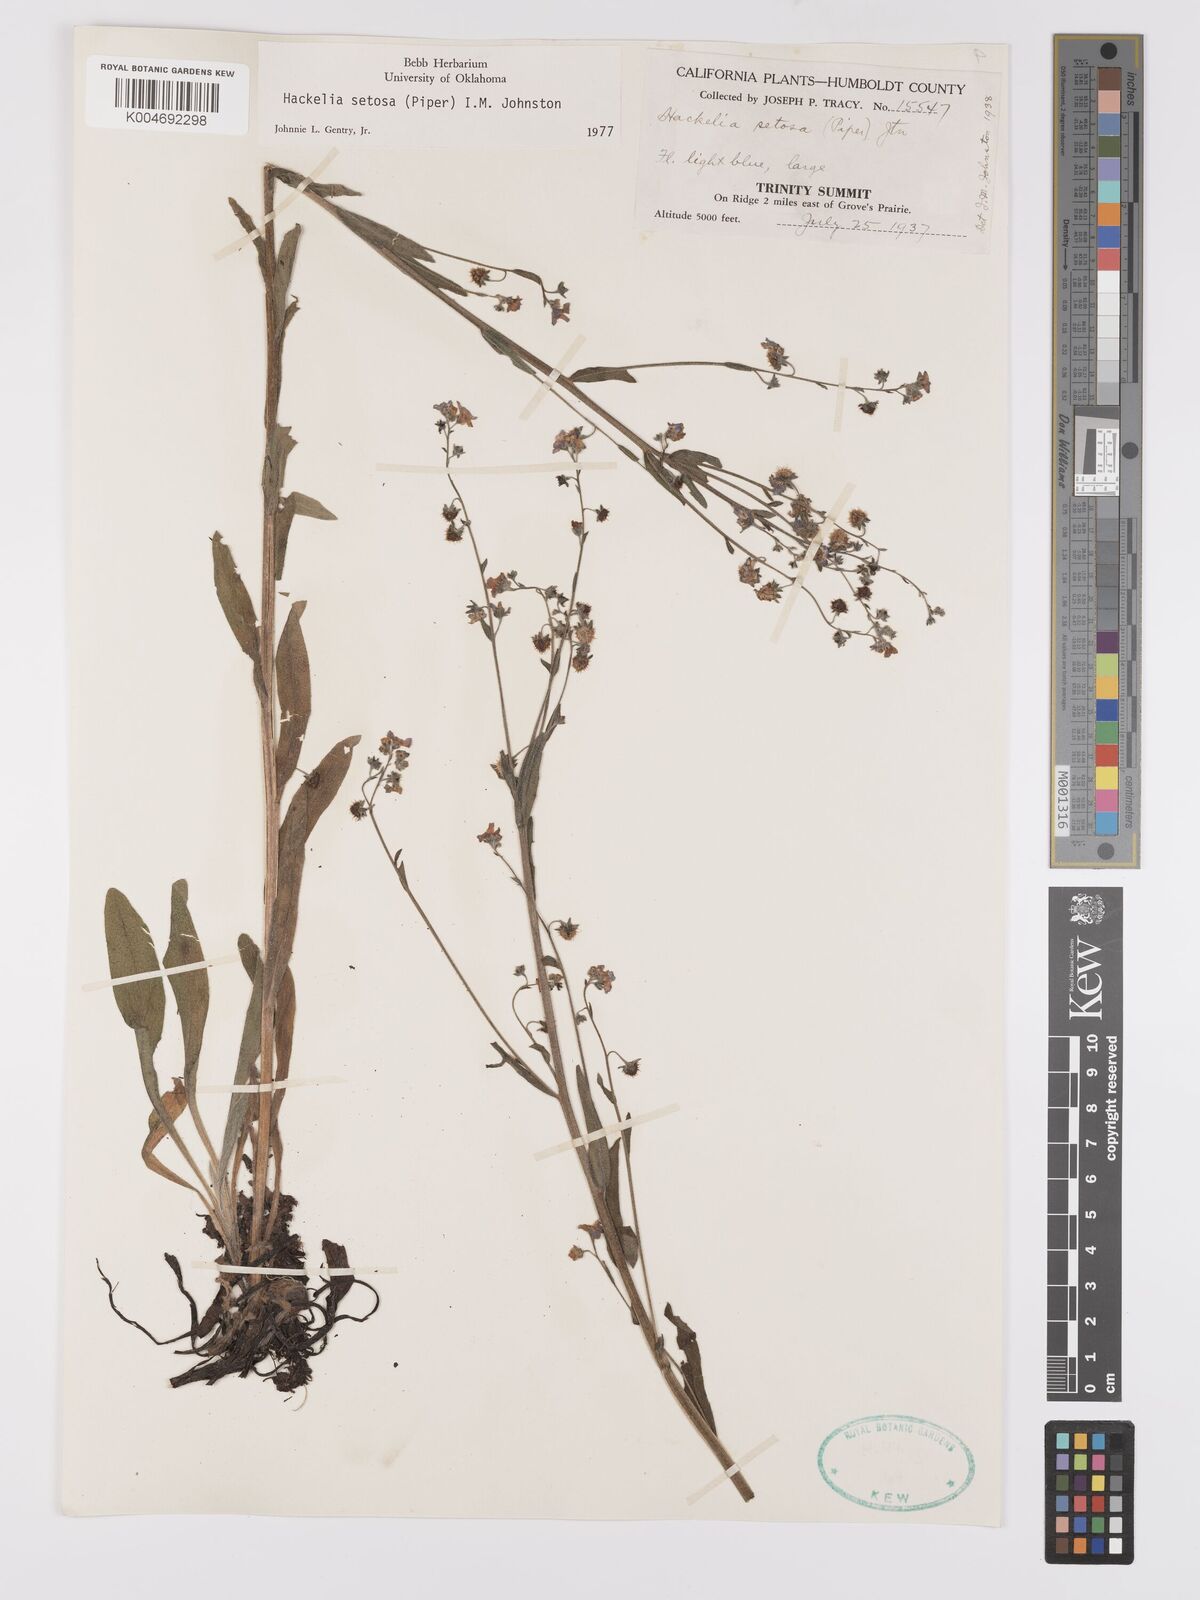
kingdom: Plantae
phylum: Tracheophyta
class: Magnoliopsida
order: Boraginales
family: Boraginaceae
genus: Hackelia
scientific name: Hackelia setosa
